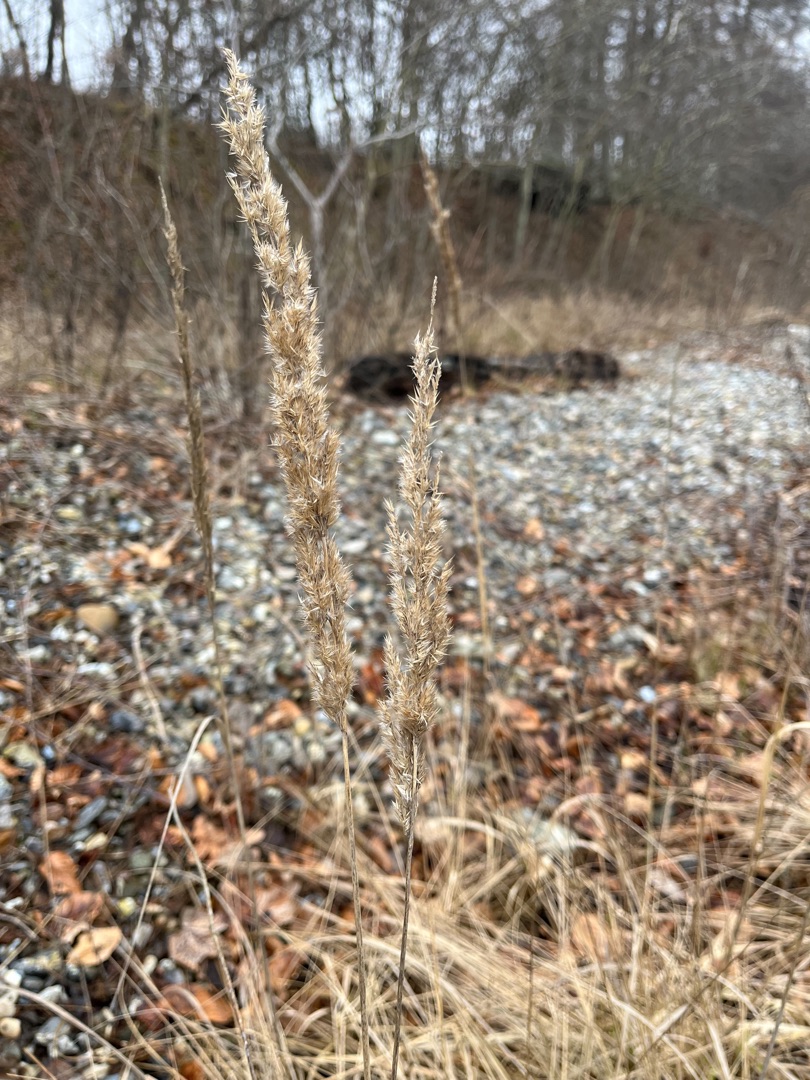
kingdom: Plantae
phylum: Tracheophyta
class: Liliopsida
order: Poales
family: Poaceae
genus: Calamagrostis
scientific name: Calamagrostis epigejos
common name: Bjerg-rørhvene
